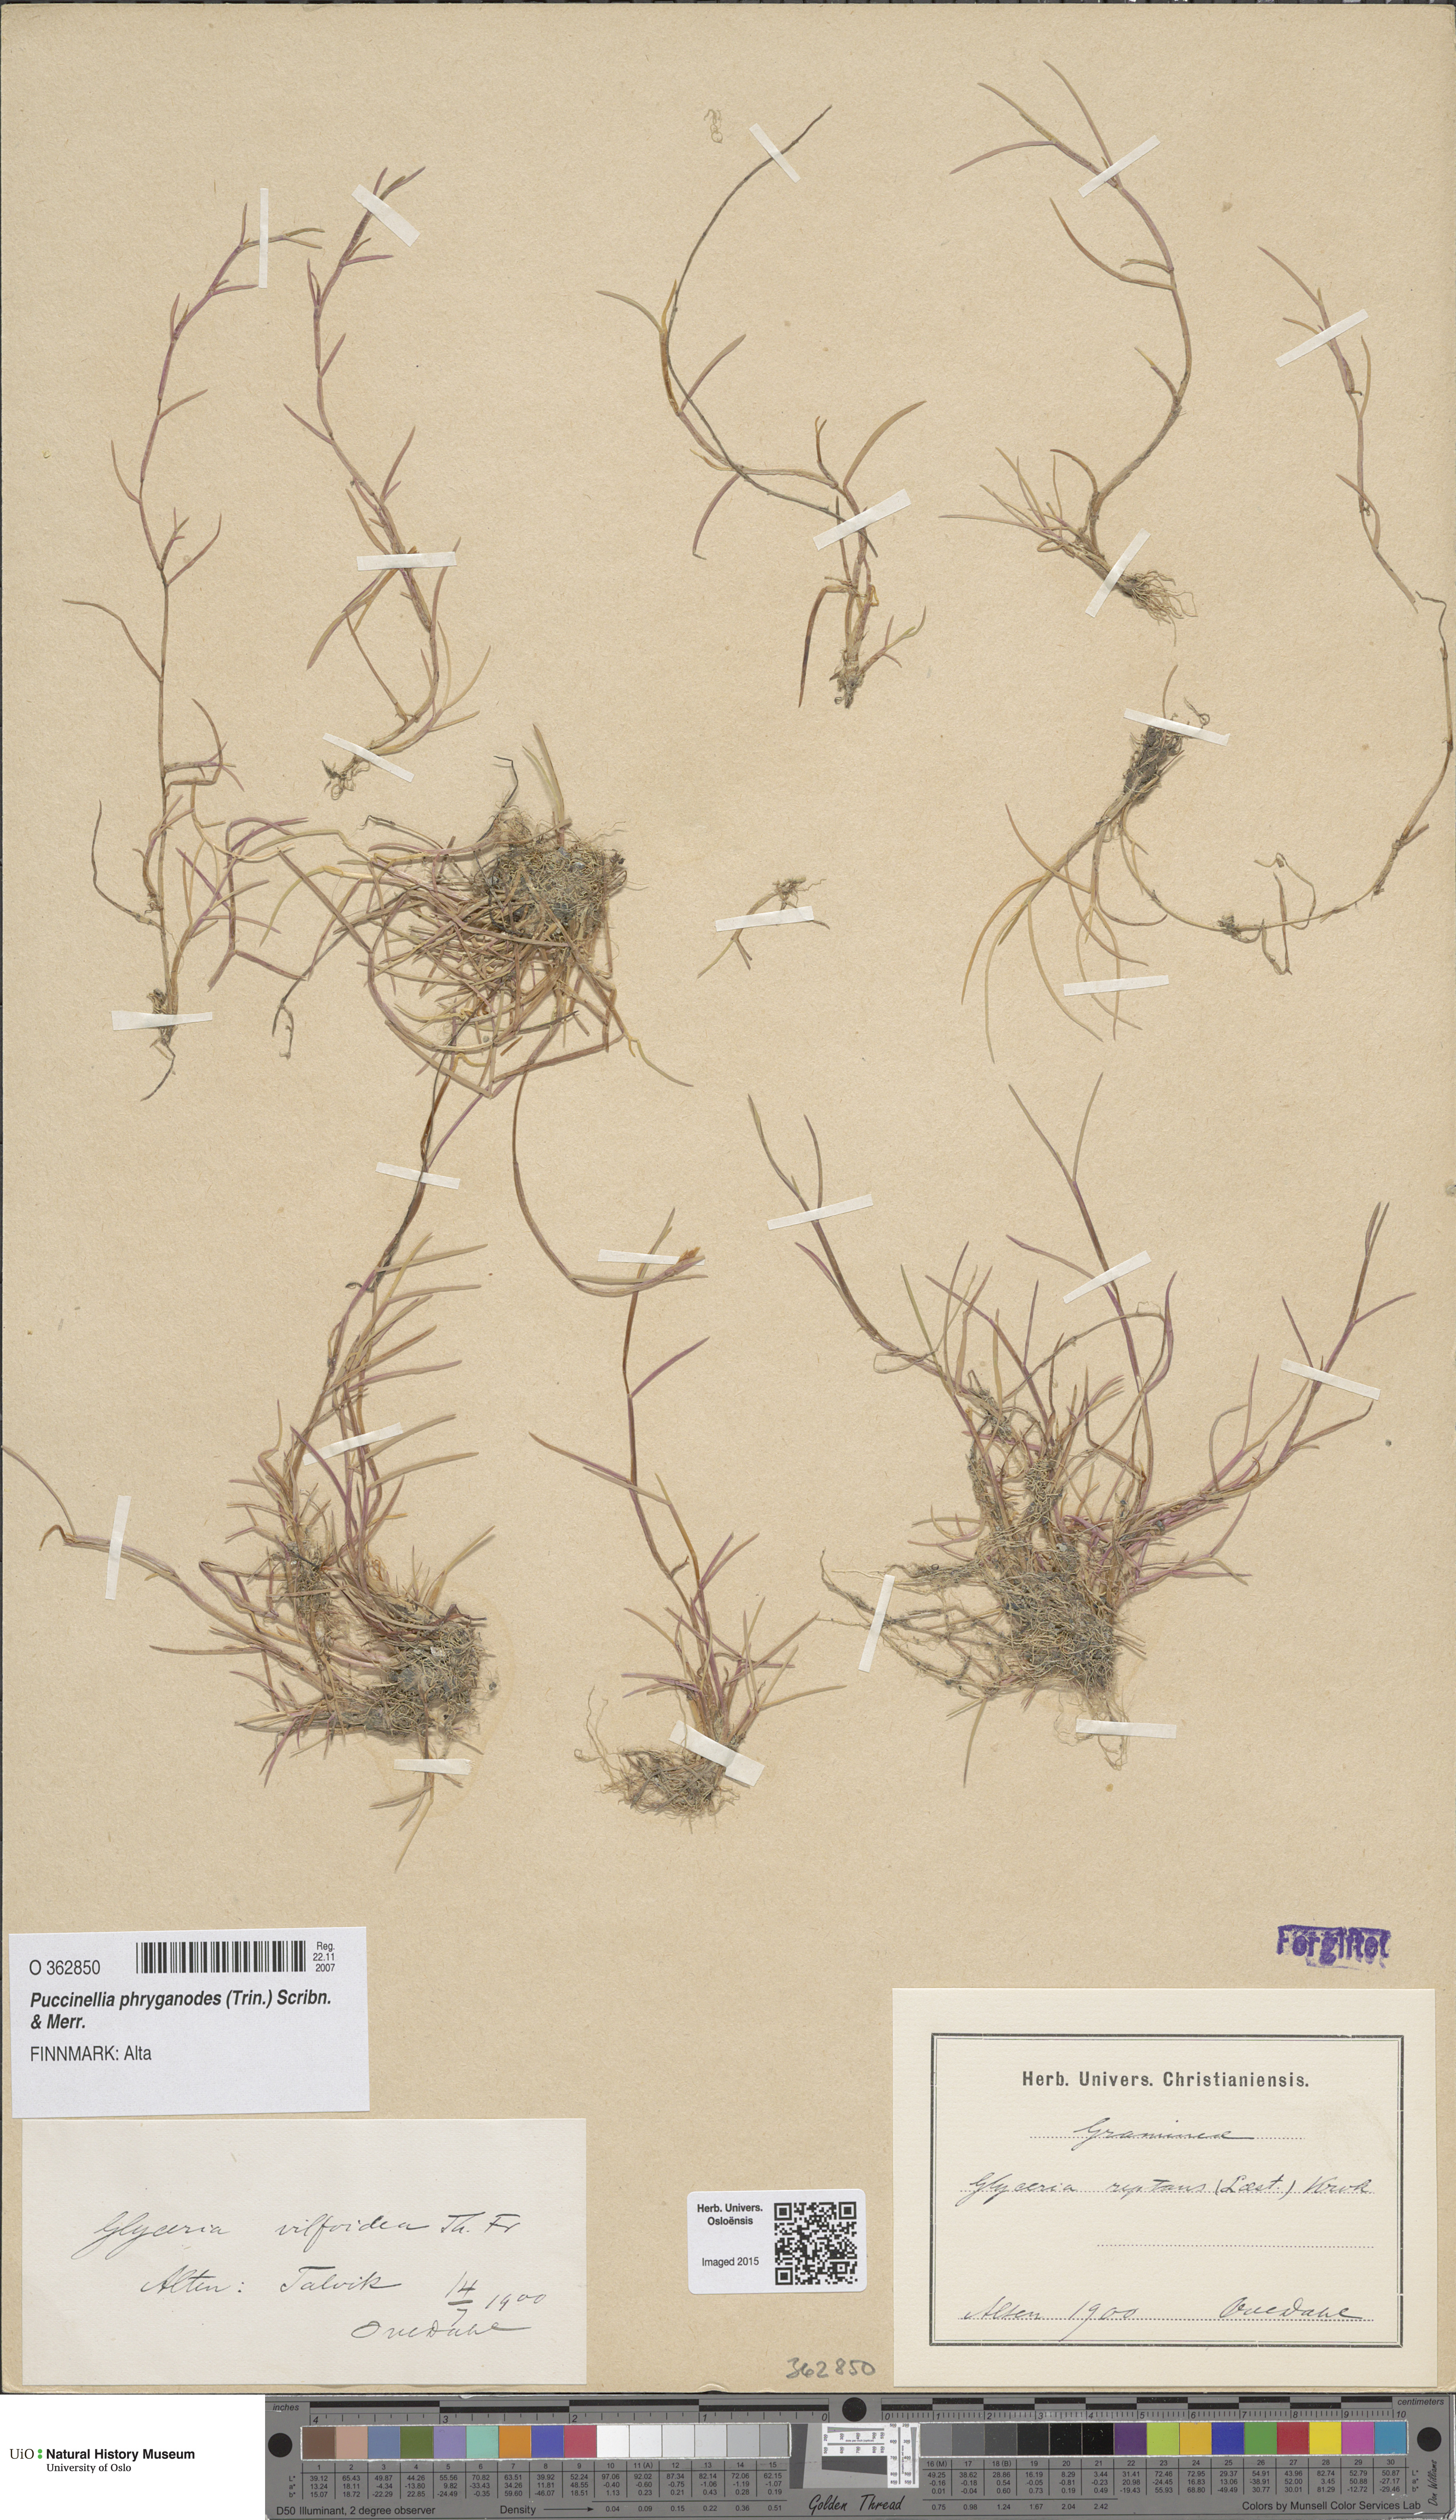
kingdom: Plantae
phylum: Tracheophyta
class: Liliopsida
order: Poales
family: Poaceae
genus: Puccinellia
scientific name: Puccinellia phryganodes
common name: Creeping alkaligrass
